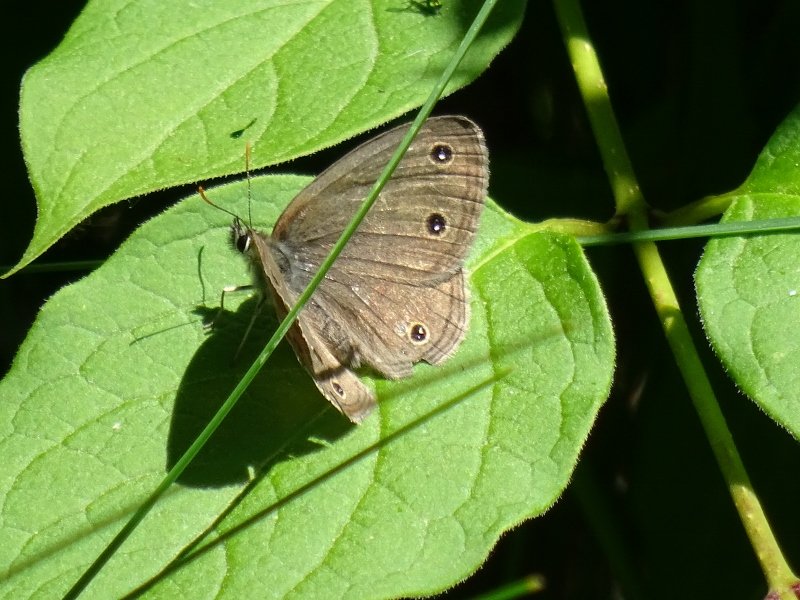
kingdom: Animalia
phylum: Arthropoda
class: Insecta
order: Lepidoptera
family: Nymphalidae
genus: Euptychia
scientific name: Euptychia cymela
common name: Little Wood Satyr
